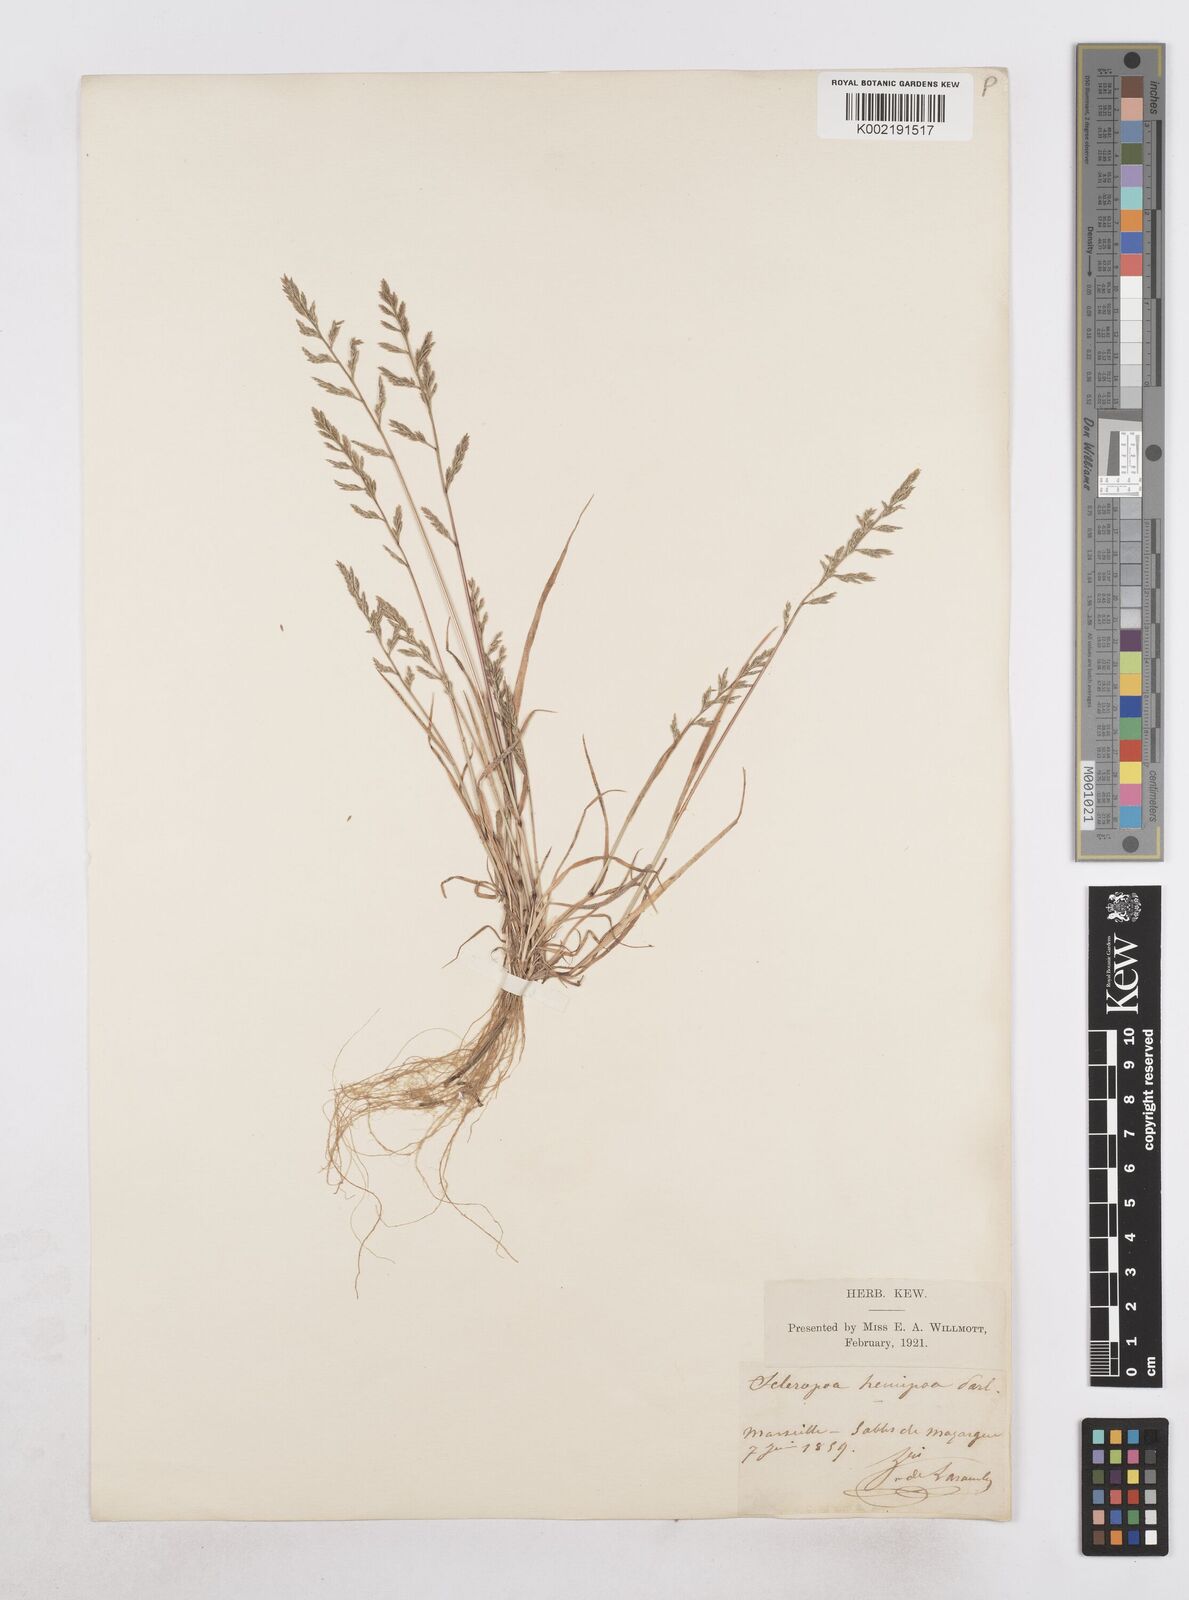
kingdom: Plantae
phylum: Tracheophyta
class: Liliopsida
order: Poales
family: Poaceae
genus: Catapodium
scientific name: Catapodium hemipoa
